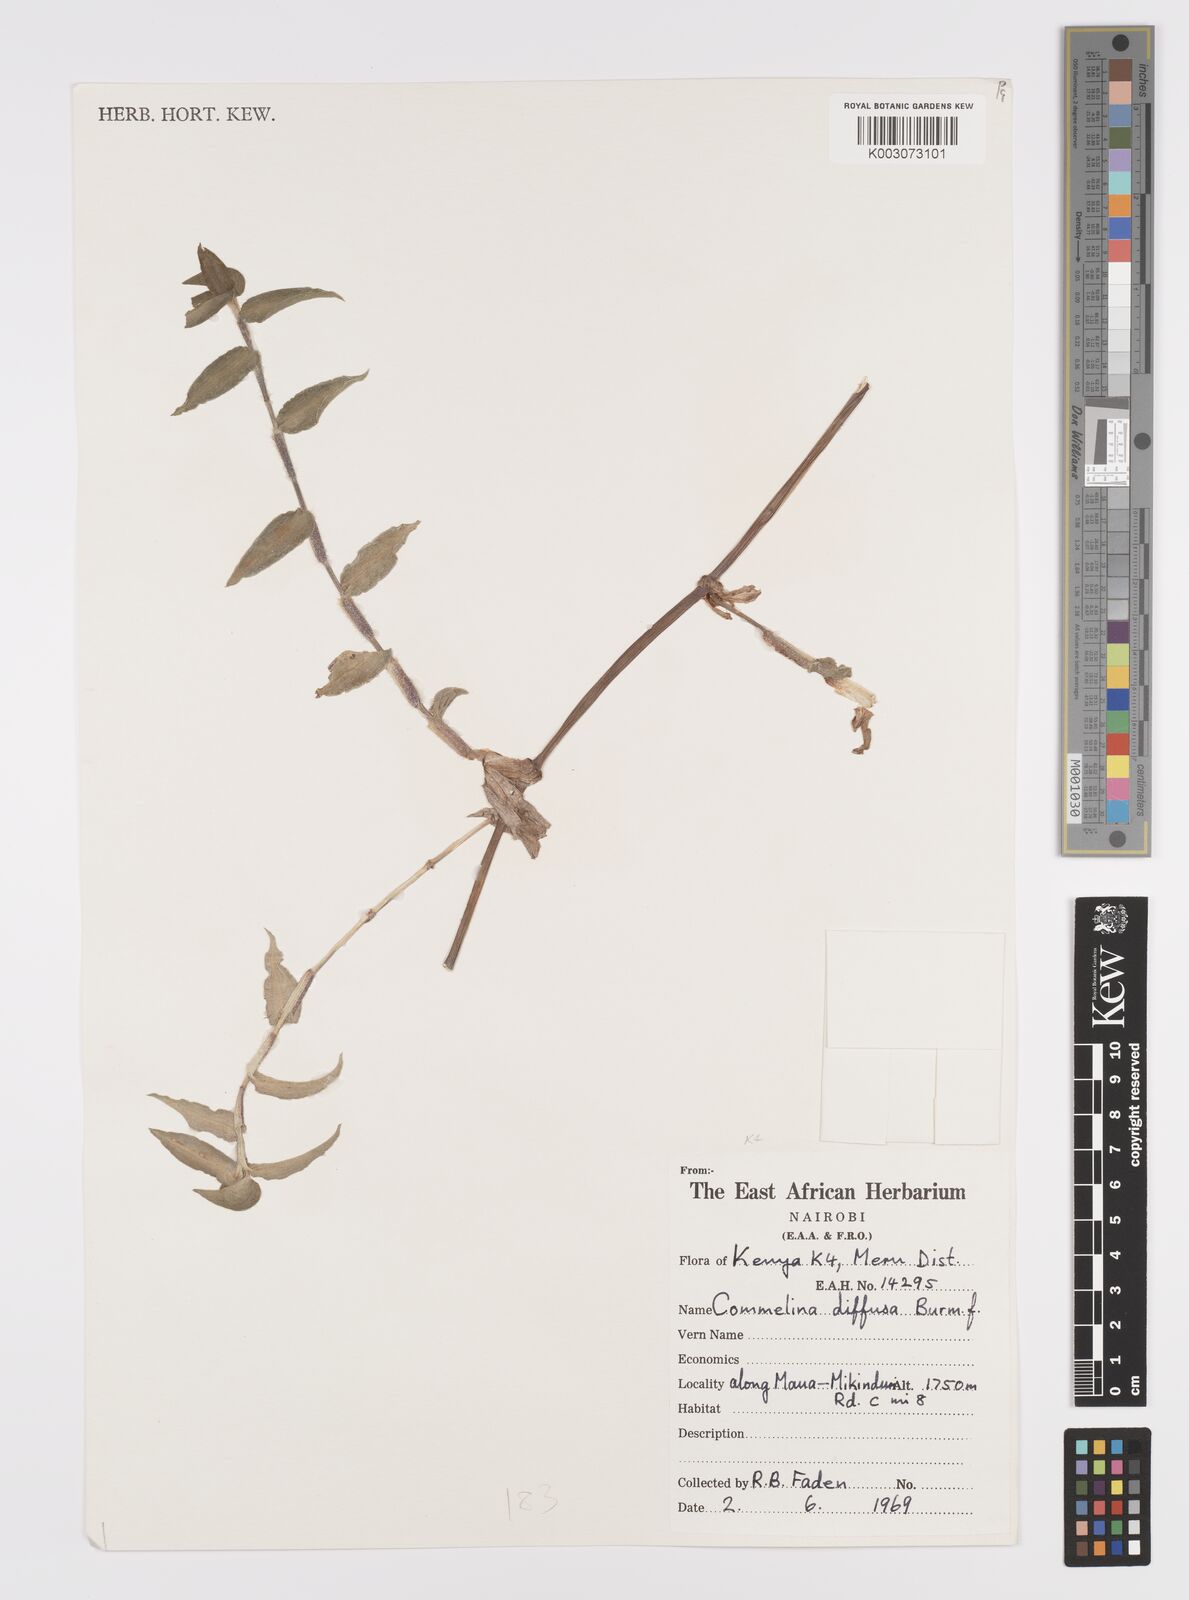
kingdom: Plantae
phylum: Tracheophyta
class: Liliopsida
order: Commelinales
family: Commelinaceae
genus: Commelina
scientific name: Commelina diffusa
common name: Climbing dayflower
